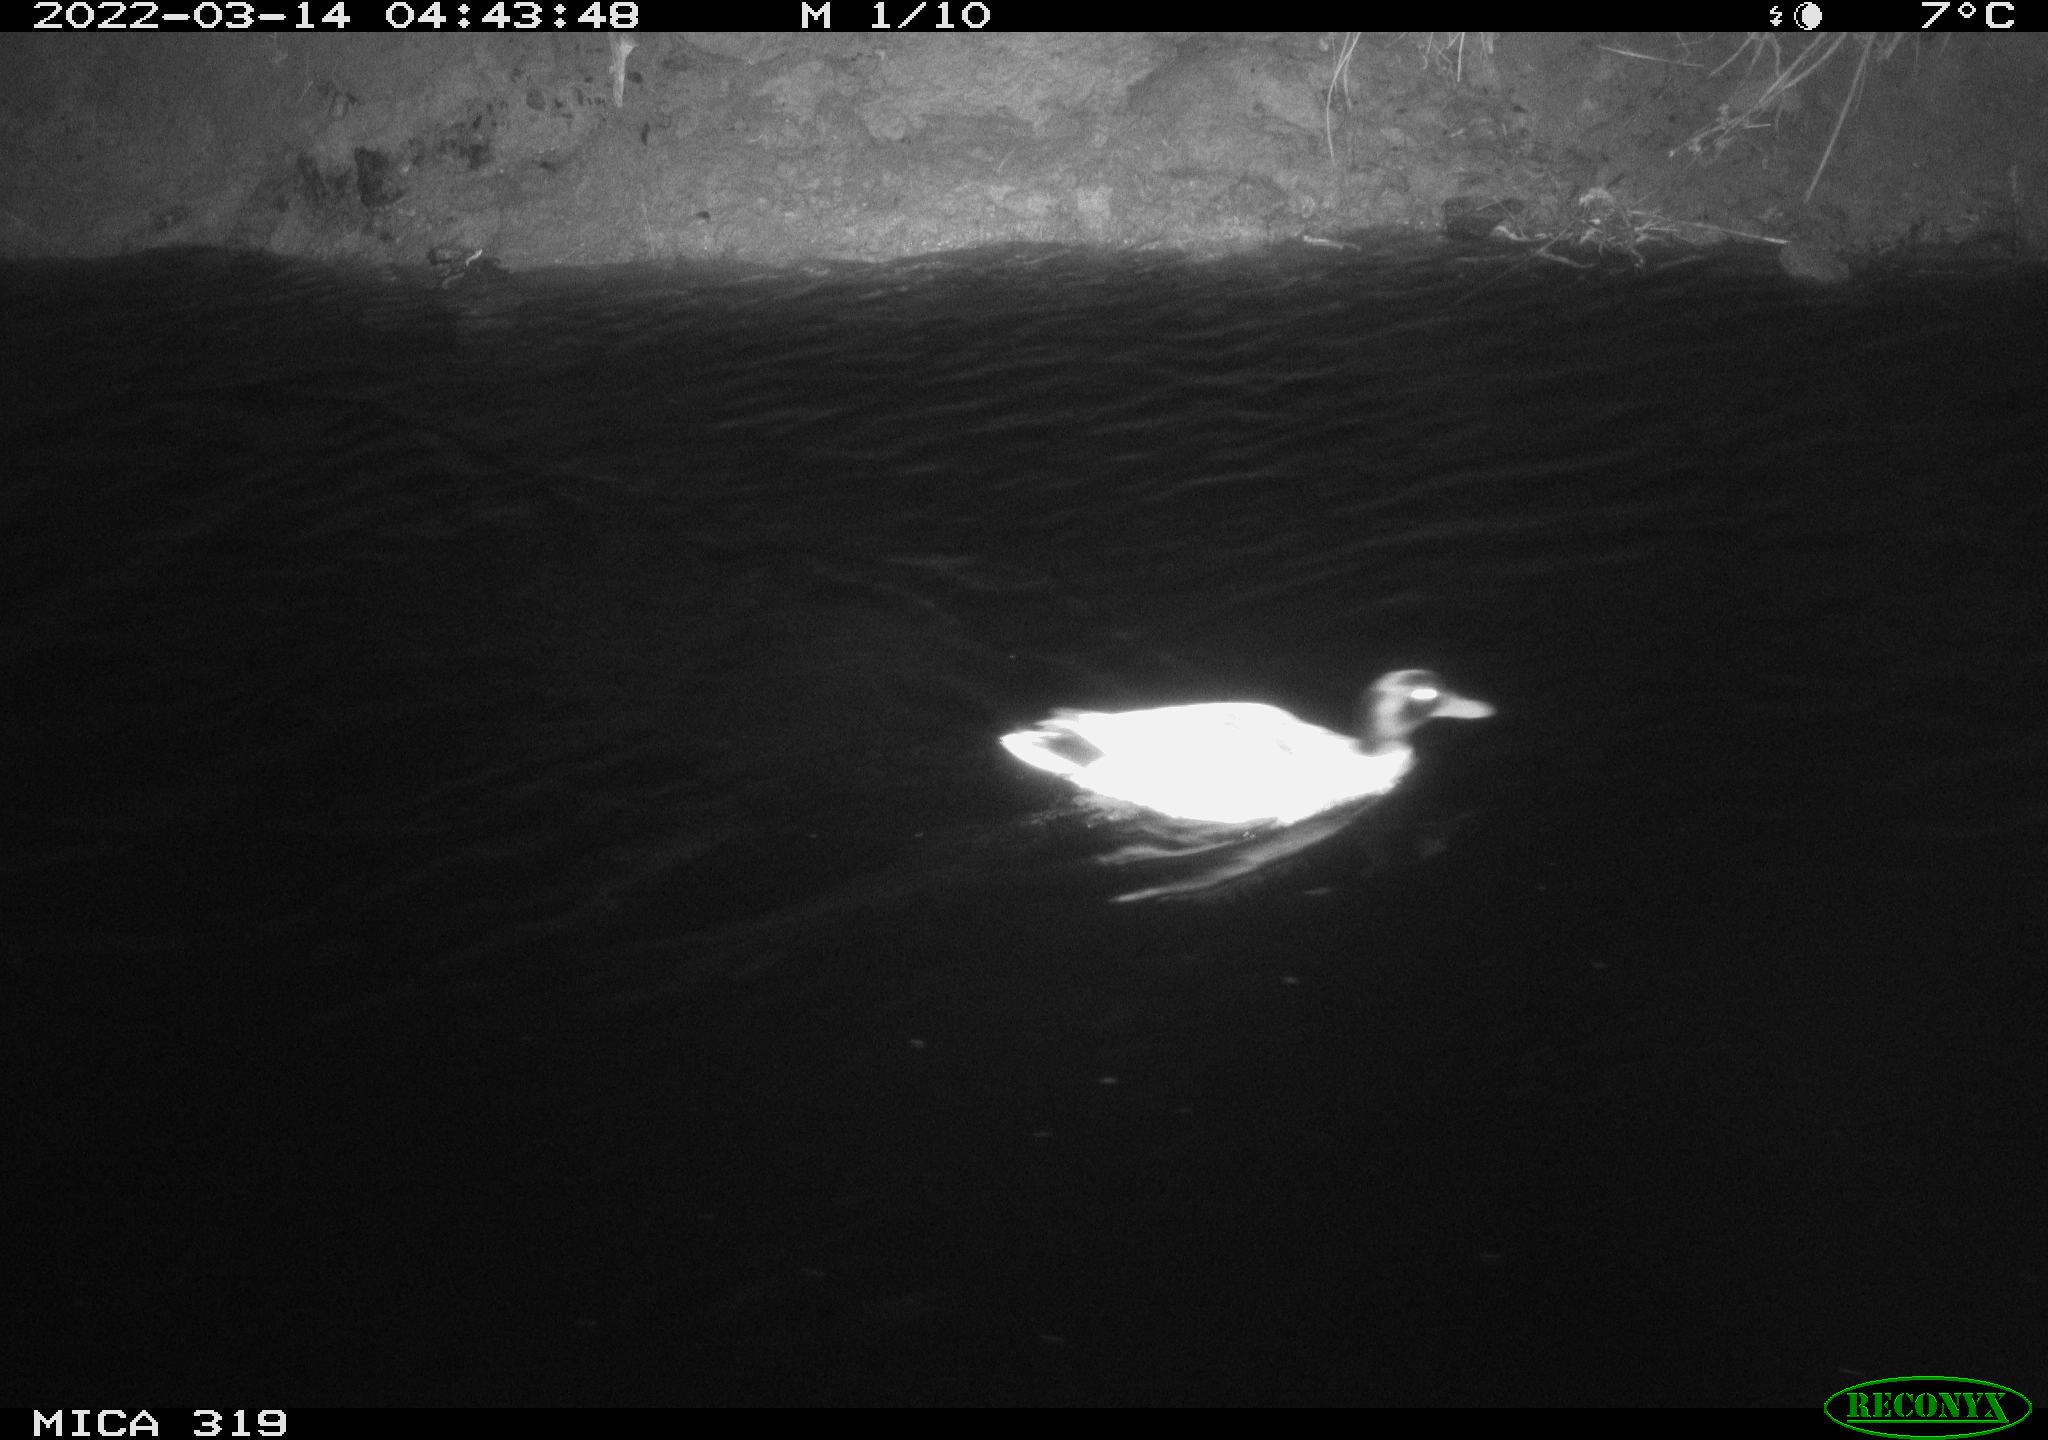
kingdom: Animalia
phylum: Chordata
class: Aves
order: Anseriformes
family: Anatidae
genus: Anas
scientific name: Anas platyrhynchos
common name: Mallard
